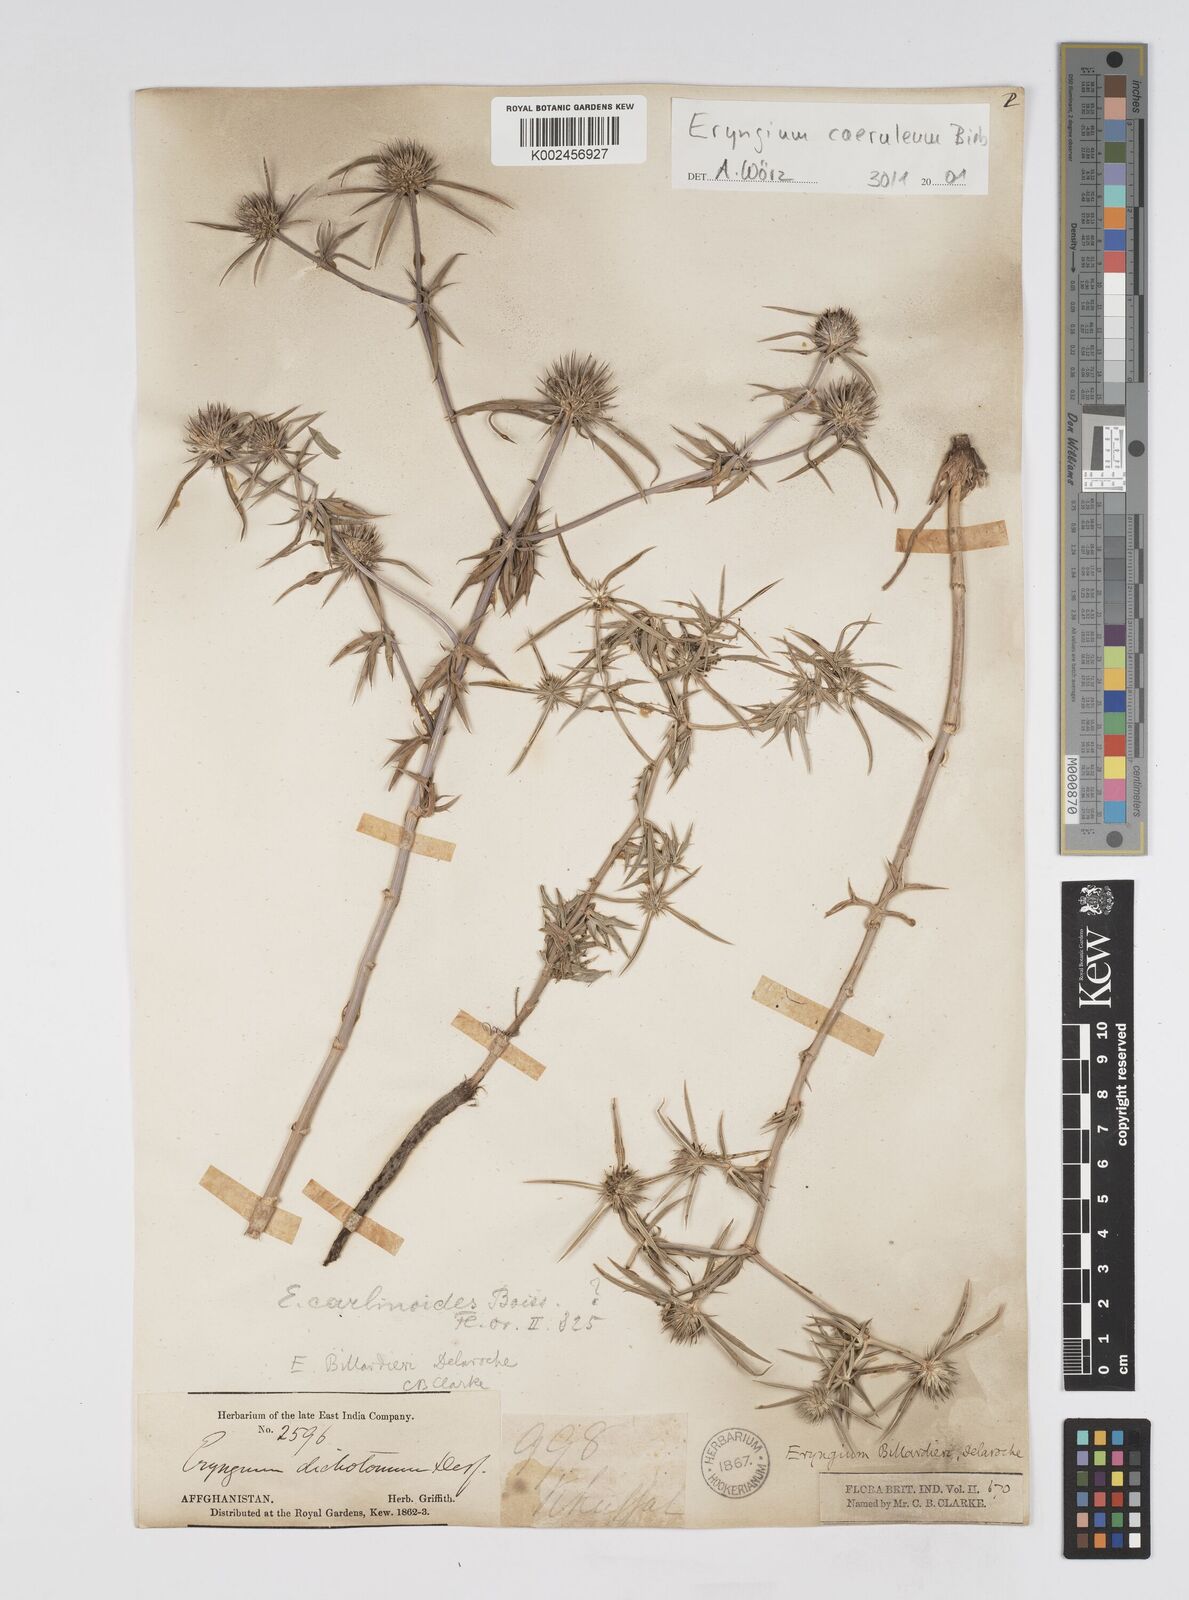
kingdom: Plantae
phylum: Tracheophyta
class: Magnoliopsida
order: Apiales
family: Apiaceae
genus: Eryngium
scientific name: Eryngium caeruleum
